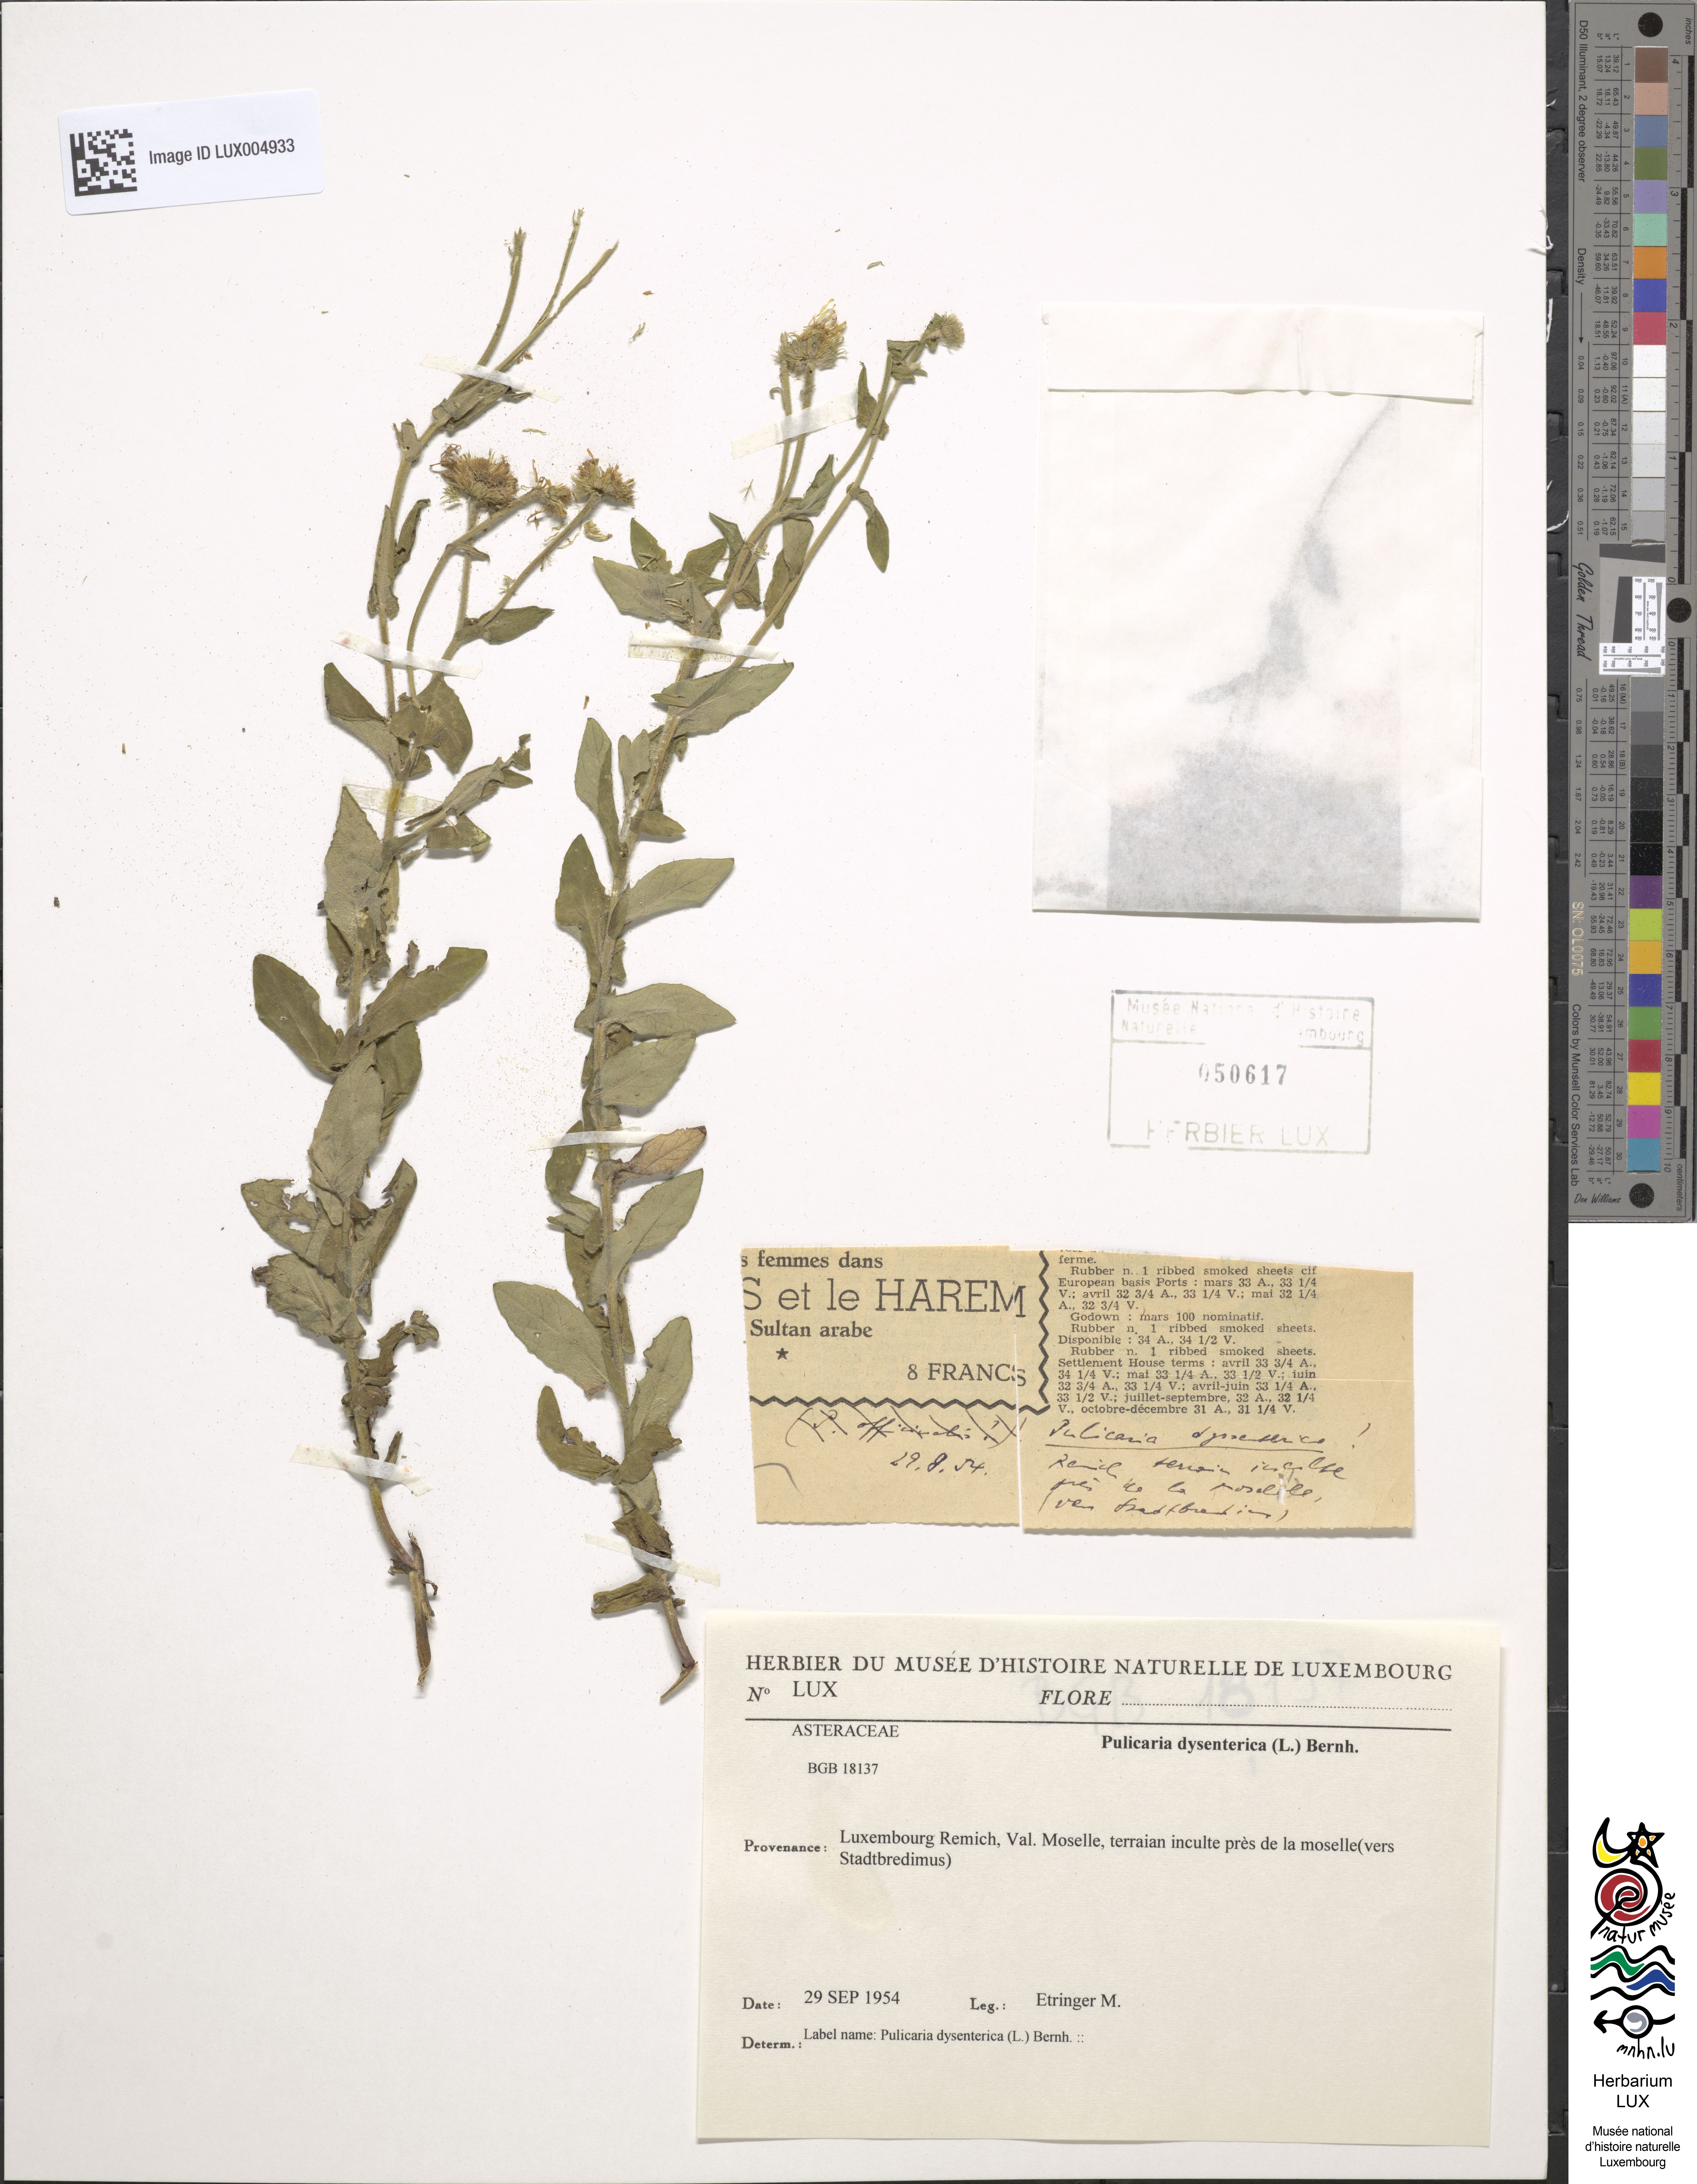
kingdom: Plantae
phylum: Tracheophyta
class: Magnoliopsida
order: Asterales
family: Asteraceae
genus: Pulicaria
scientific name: Pulicaria dysenterica
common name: Common fleabane
